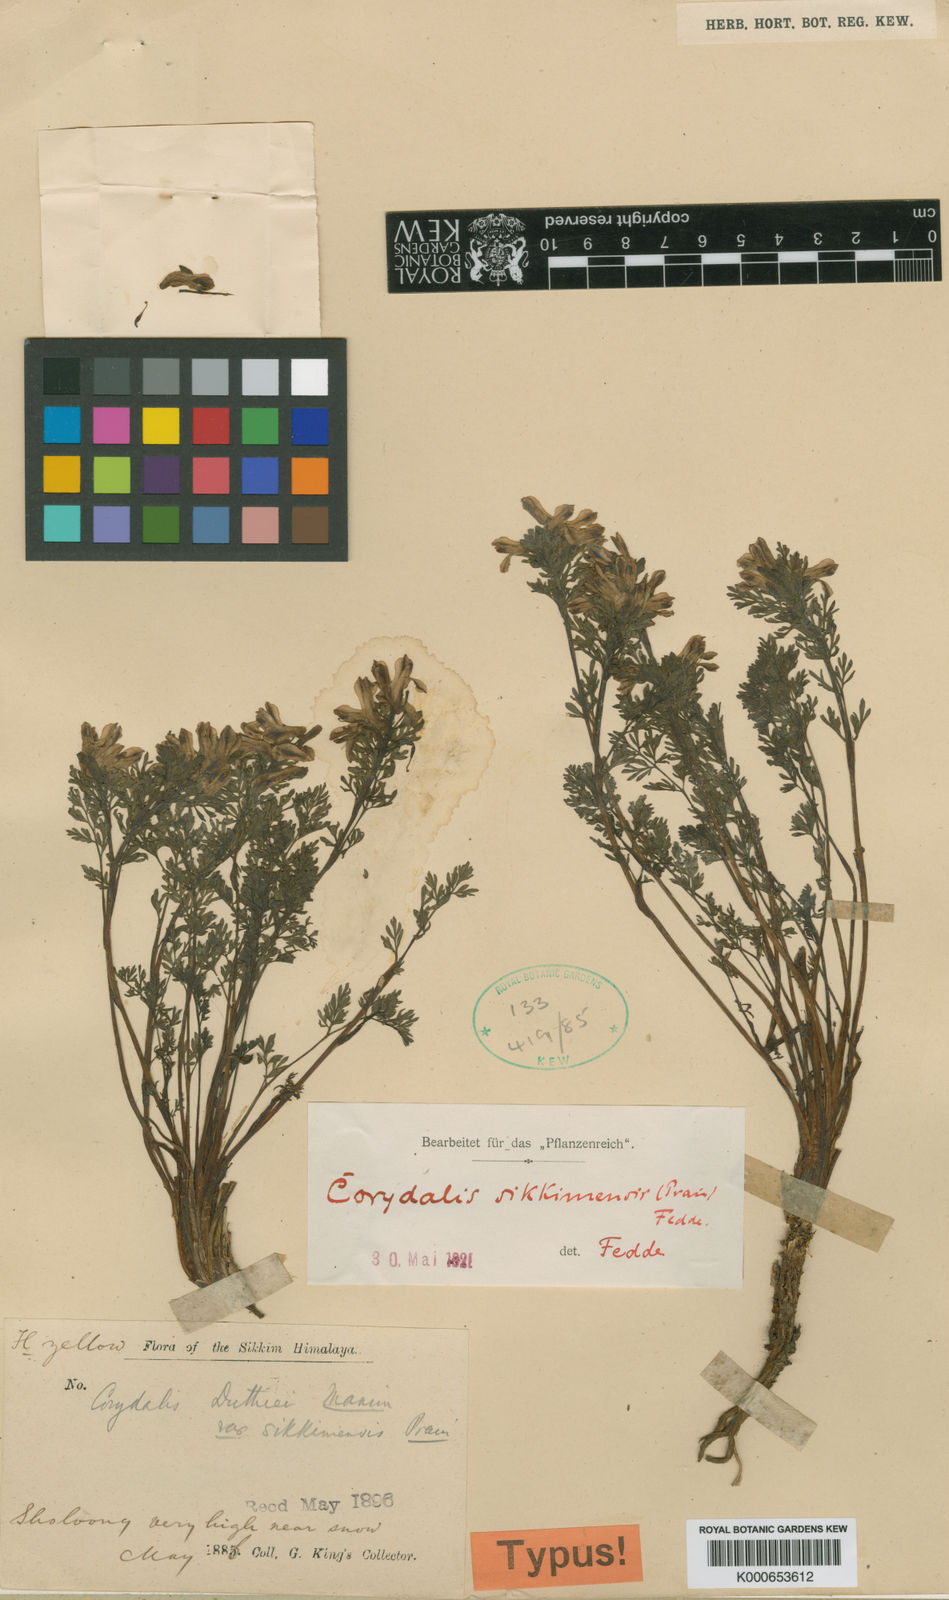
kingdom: Plantae
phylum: Tracheophyta
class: Magnoliopsida
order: Ranunculales
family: Papaveraceae
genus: Corydalis
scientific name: Corydalis sikkimensis
